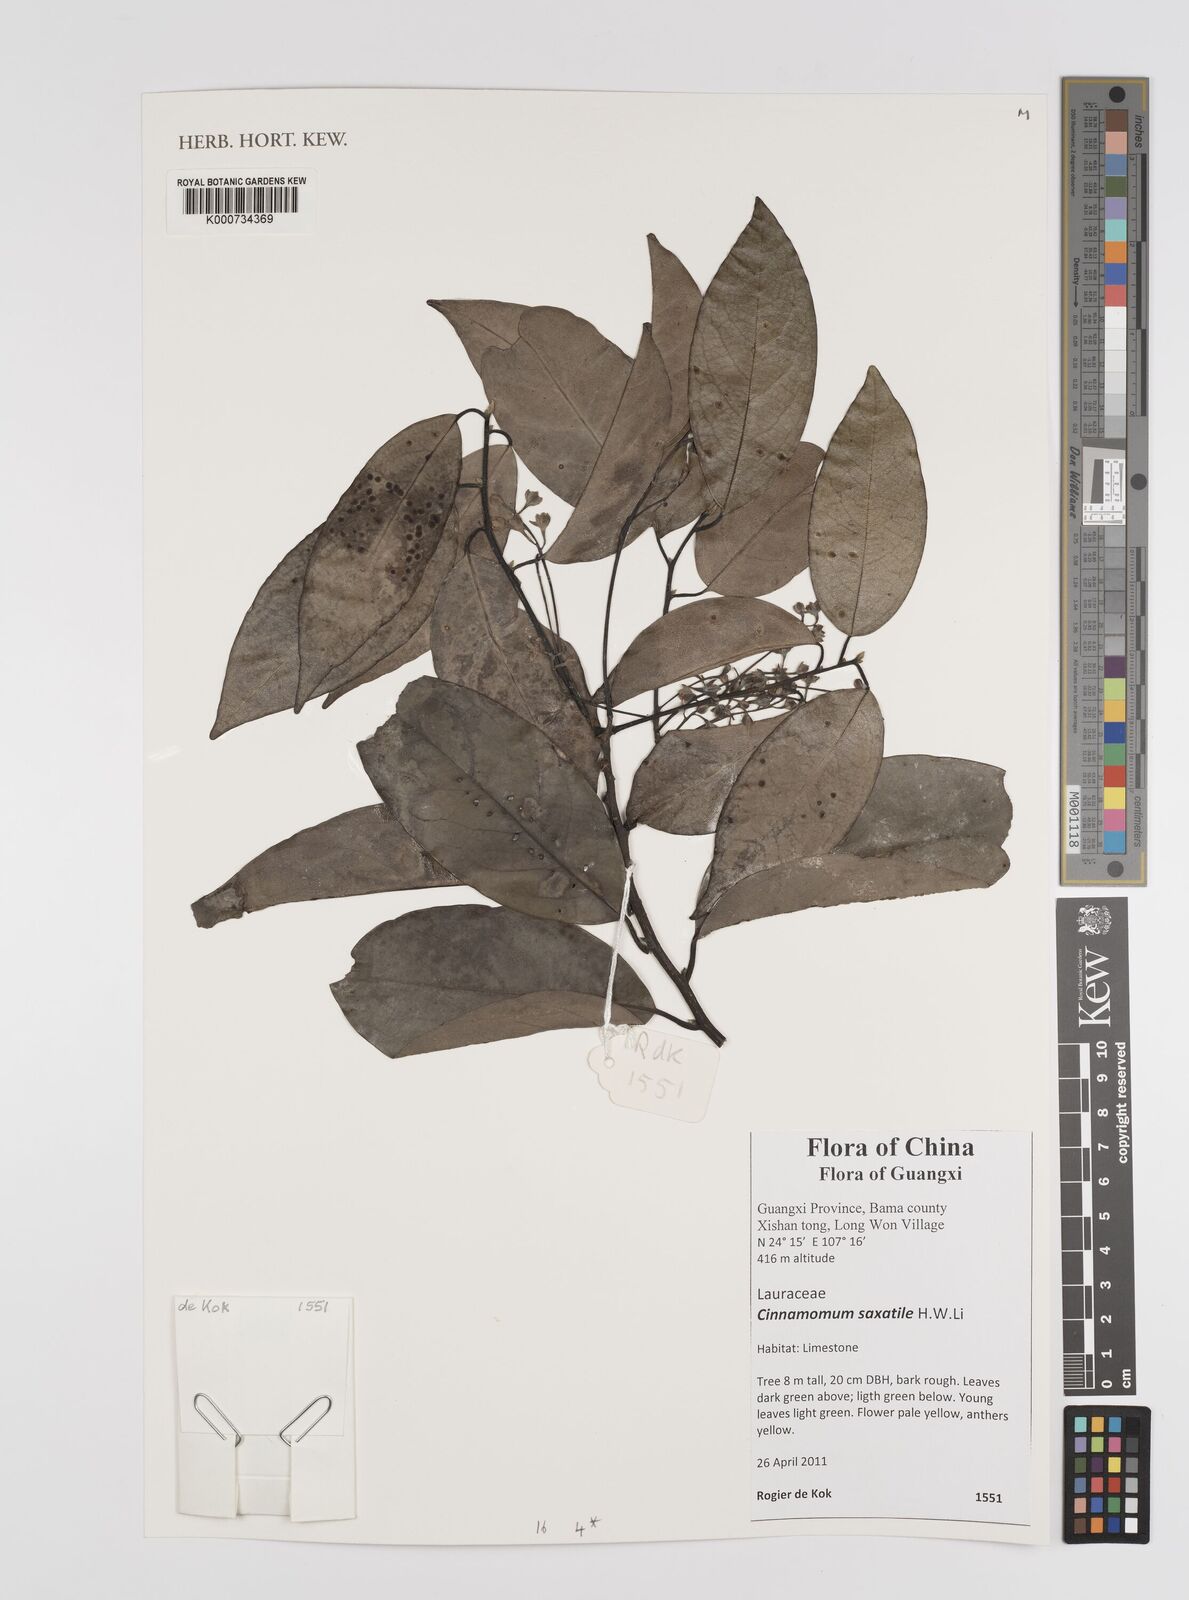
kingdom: Plantae
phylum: Tracheophyta
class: Magnoliopsida
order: Laurales
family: Lauraceae
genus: Cinnamomum
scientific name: Cinnamomum saxatile
